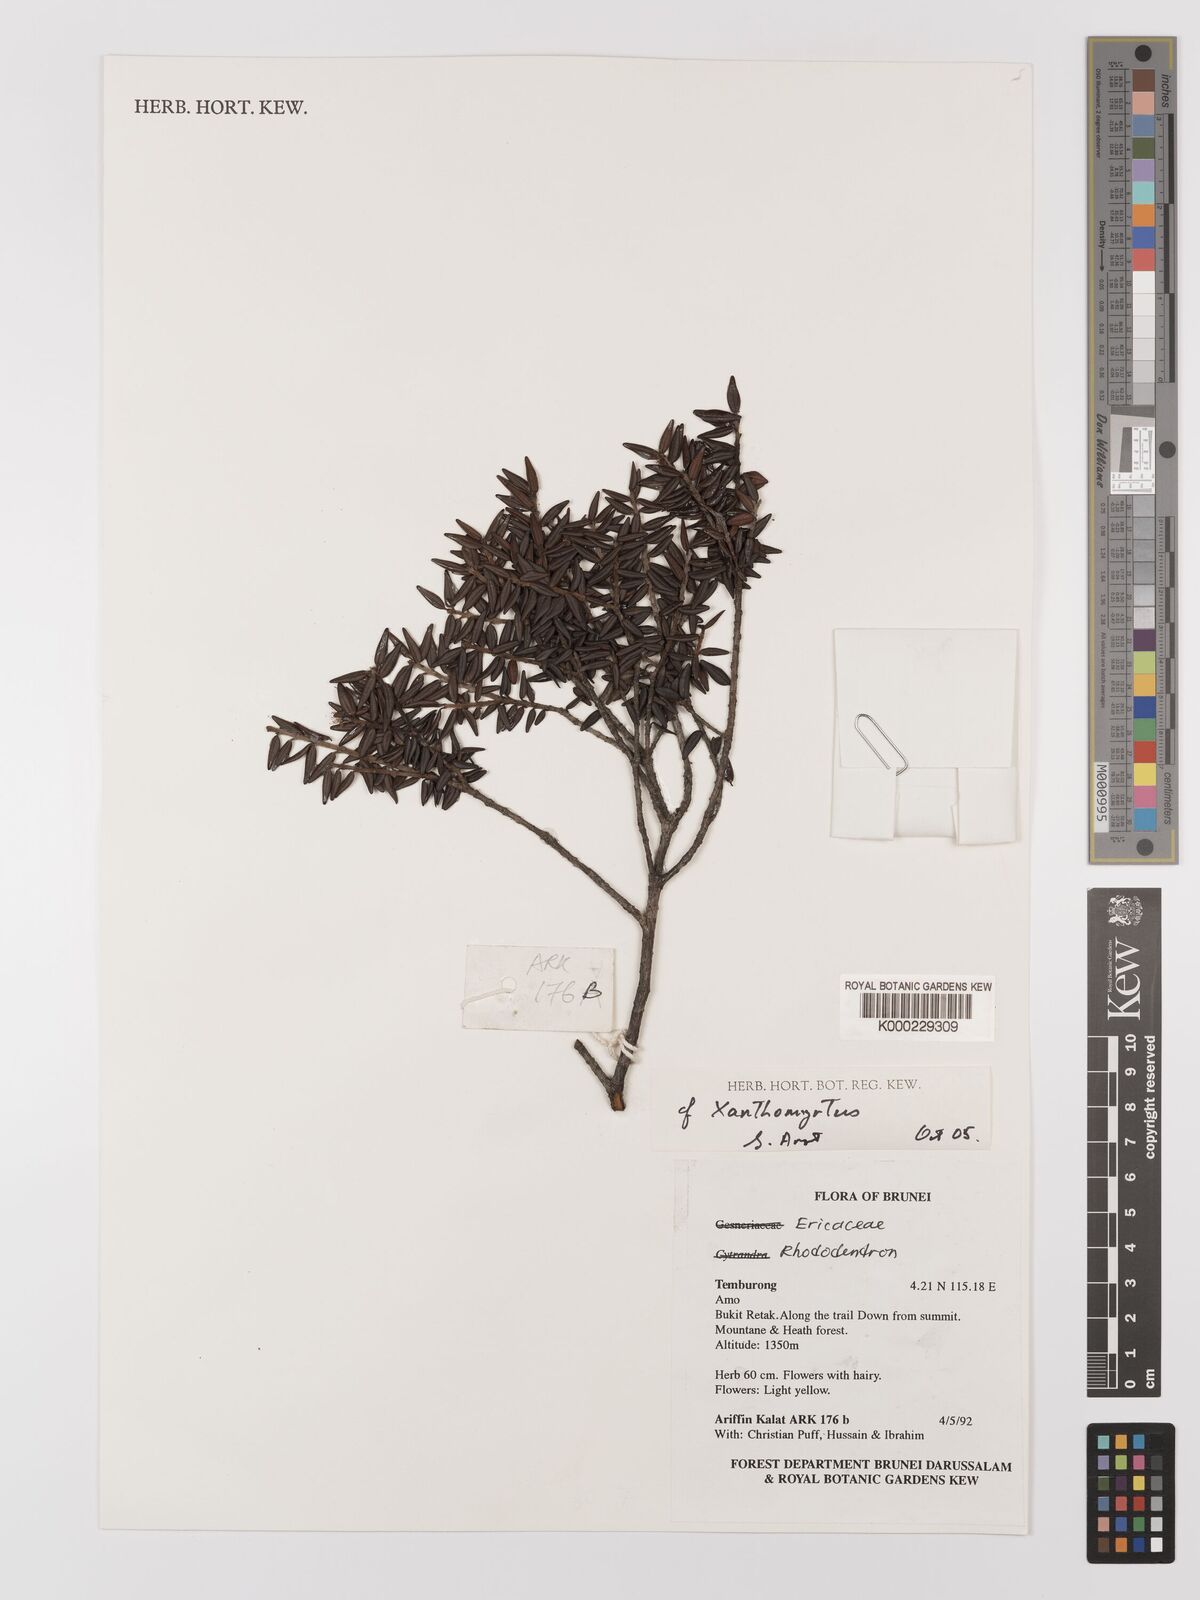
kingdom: Plantae
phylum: Tracheophyta
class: Magnoliopsida
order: Myrtales
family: Myrtaceae
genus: Xanthomyrtus
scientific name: Xanthomyrtus
